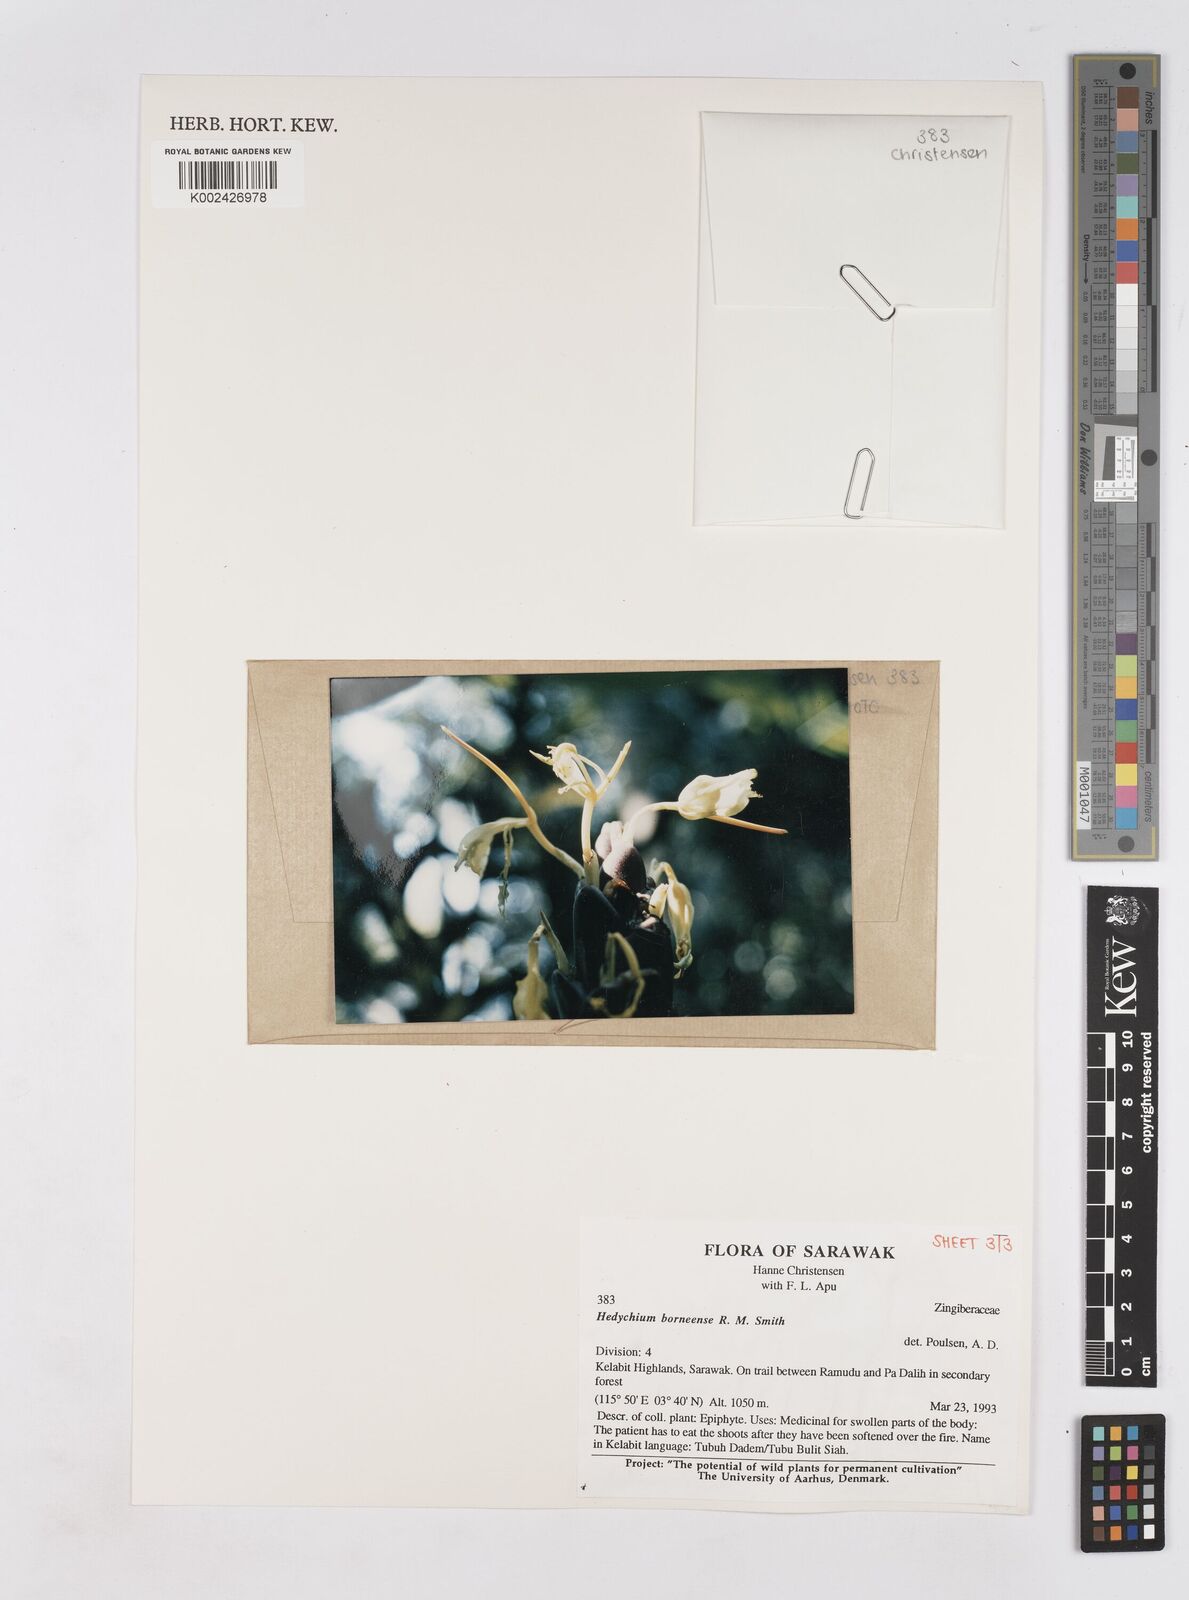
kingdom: Plantae
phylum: Tracheophyta
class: Liliopsida
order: Zingiberales
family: Zingiberaceae
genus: Hedychium
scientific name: Hedychium borneense
